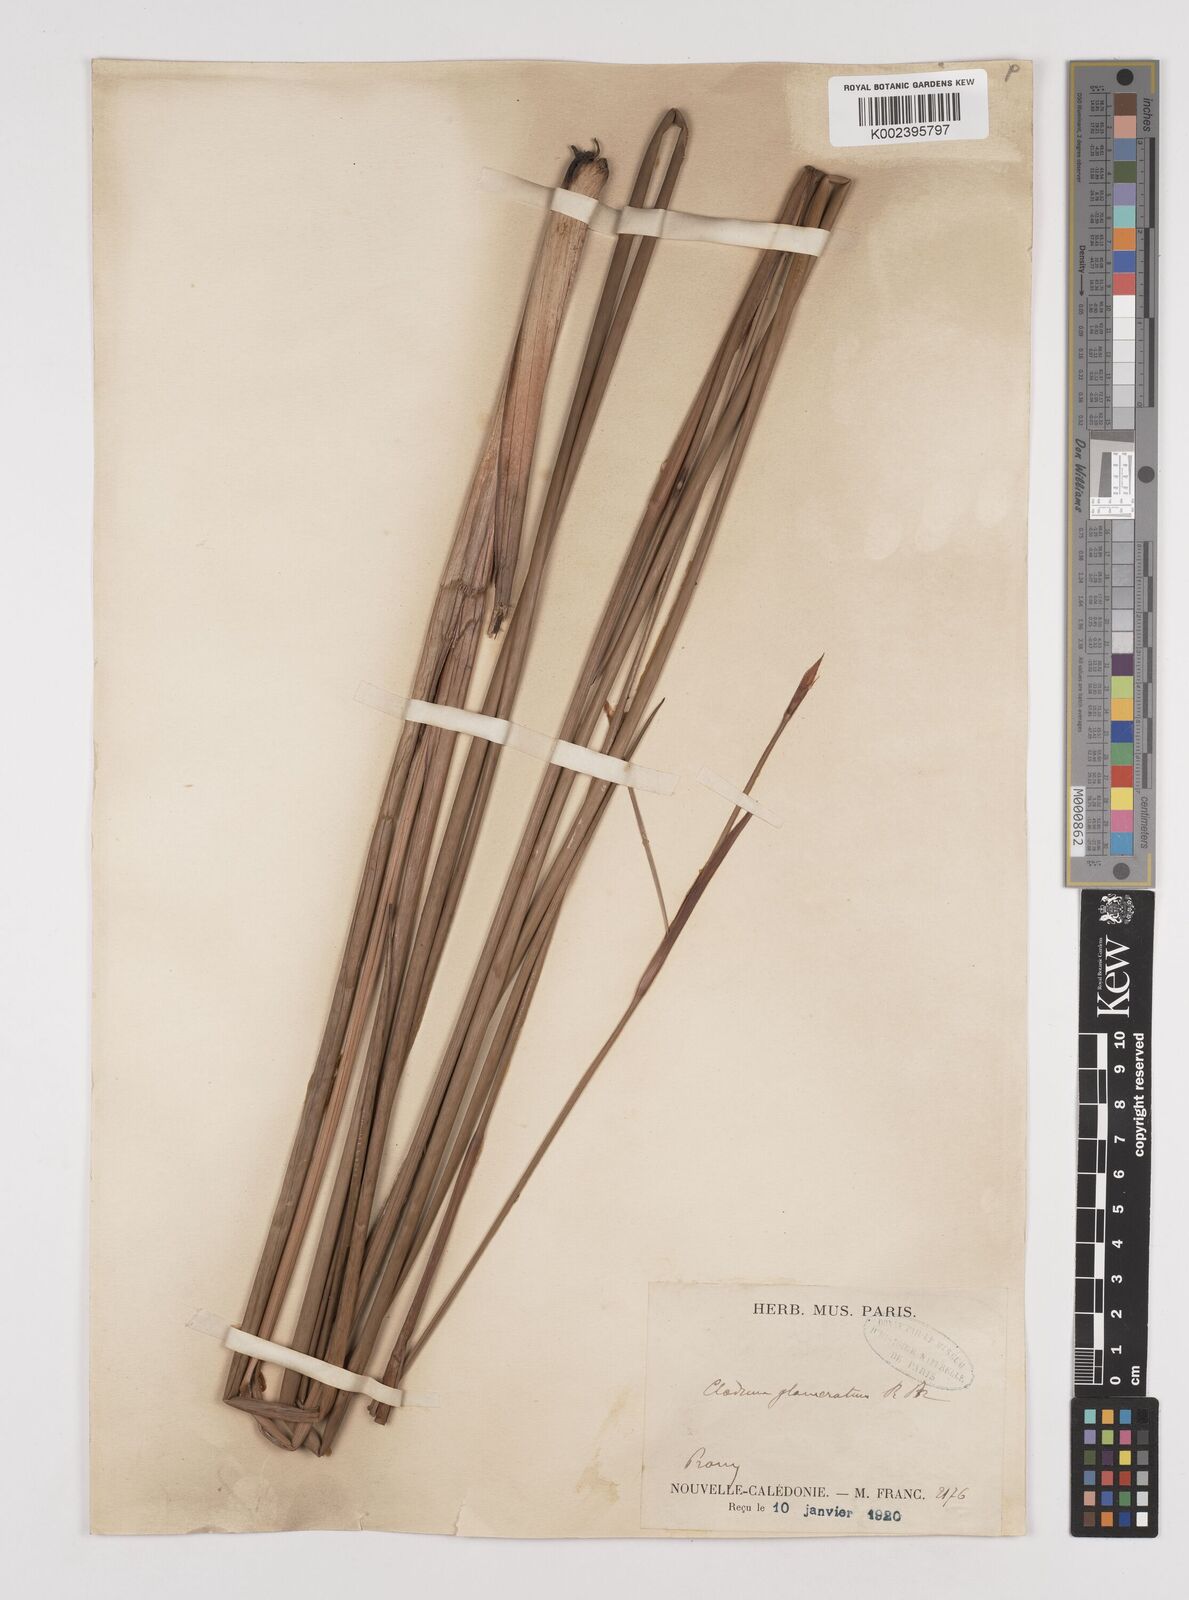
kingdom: Plantae
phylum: Tracheophyta
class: Liliopsida
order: Poales
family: Cyperaceae
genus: Machaerina
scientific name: Machaerina rubiginosa
